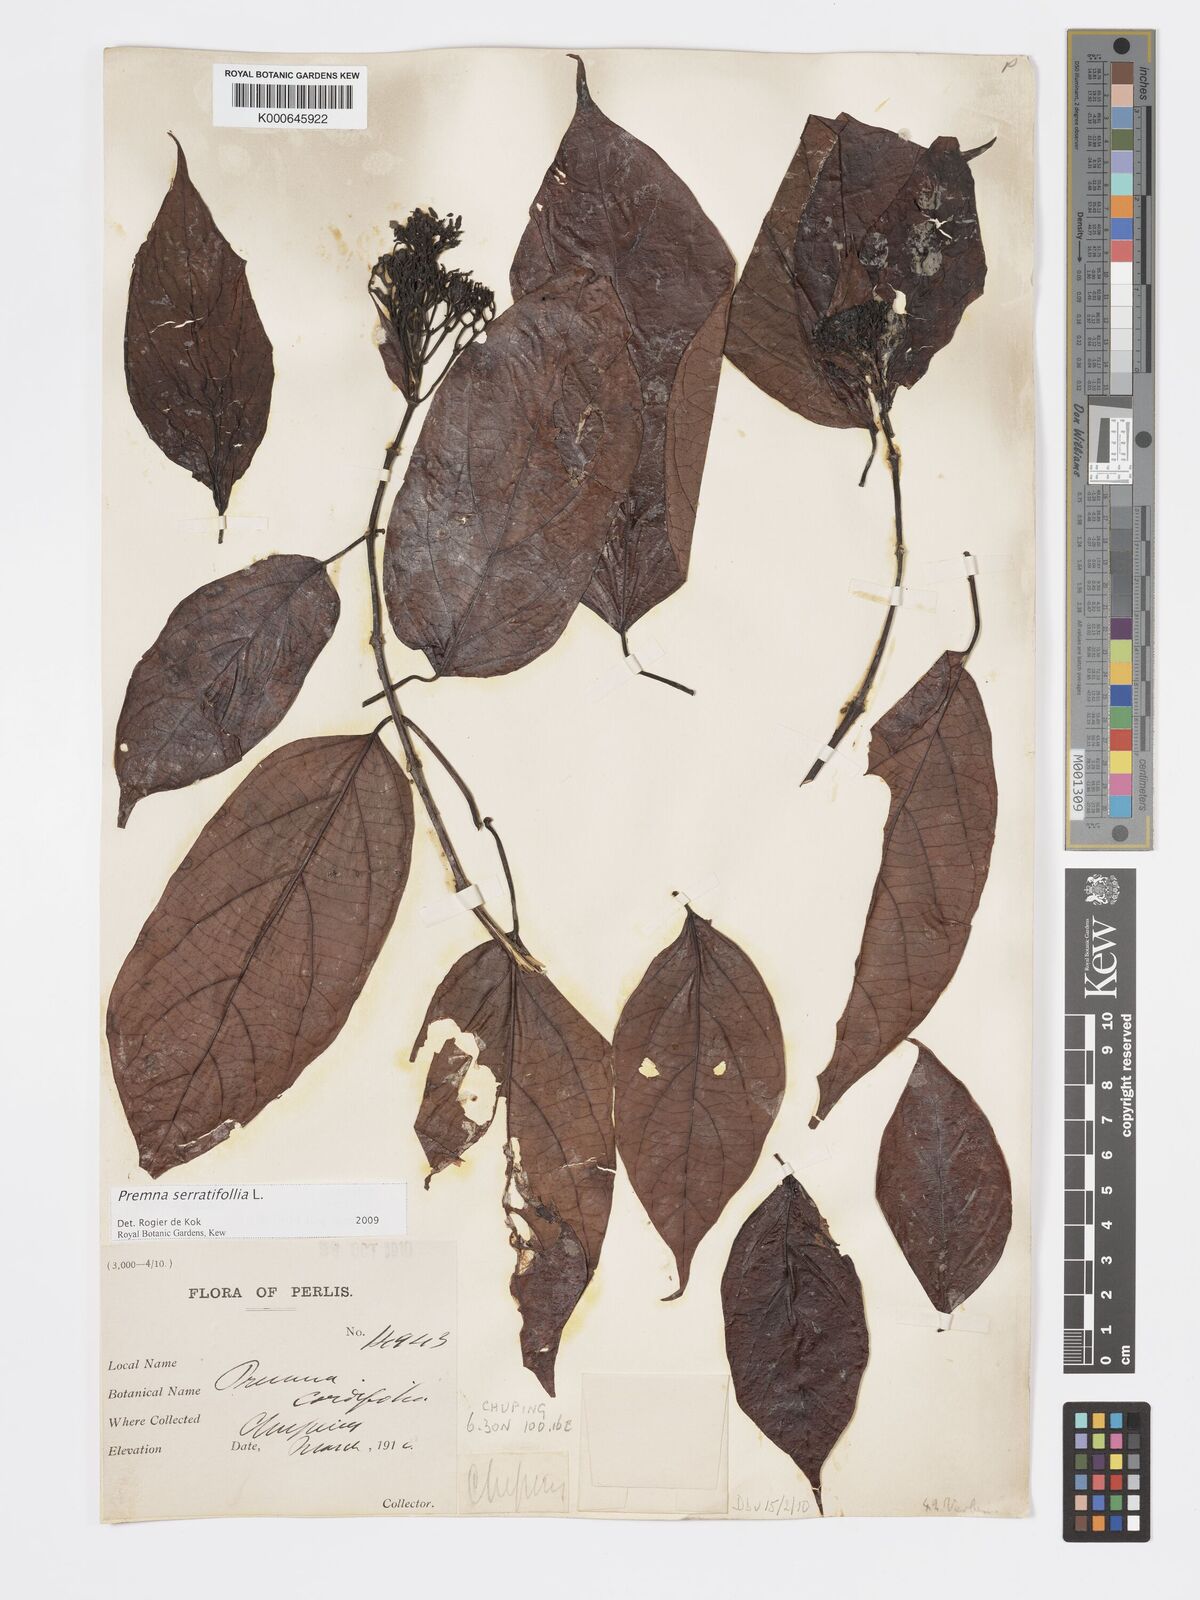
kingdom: Plantae
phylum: Tracheophyta
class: Magnoliopsida
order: Lamiales
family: Lamiaceae
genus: Premna
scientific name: Premna serratifolia
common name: Bastard guelder
